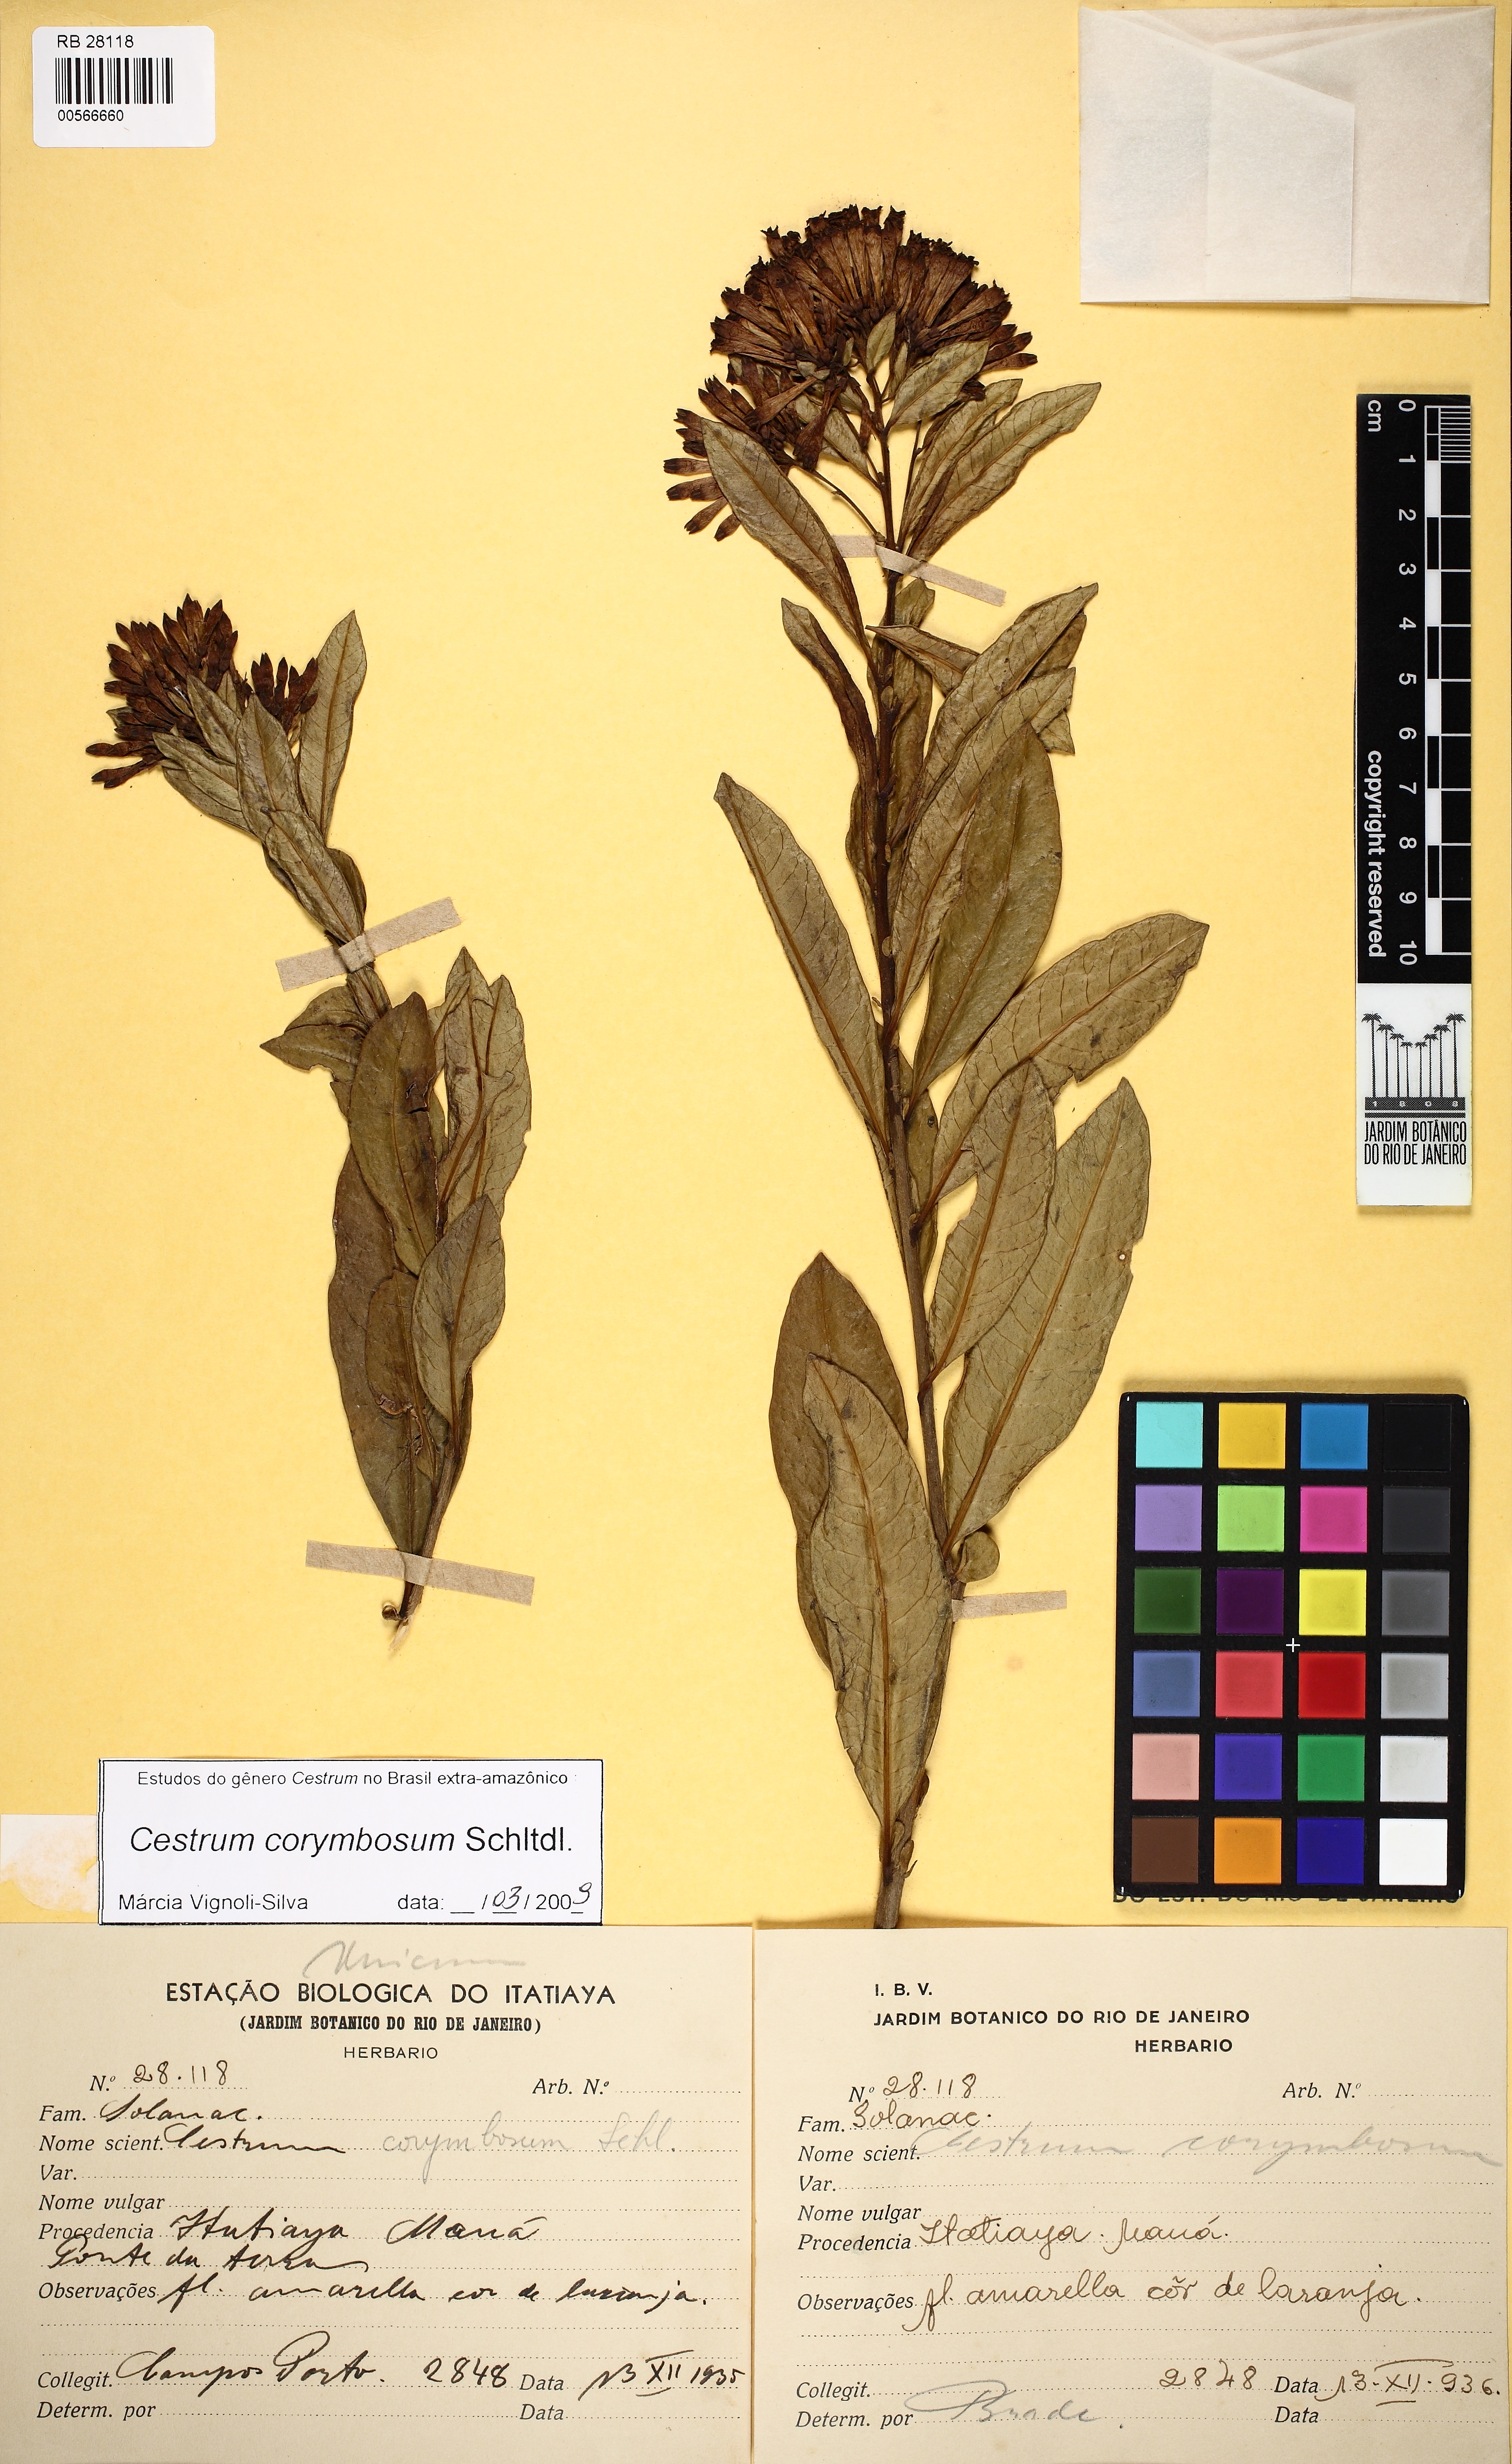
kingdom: Plantae
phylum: Tracheophyta
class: Magnoliopsida
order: Solanales
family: Solanaceae
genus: Cestrum
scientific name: Cestrum corymbosum
